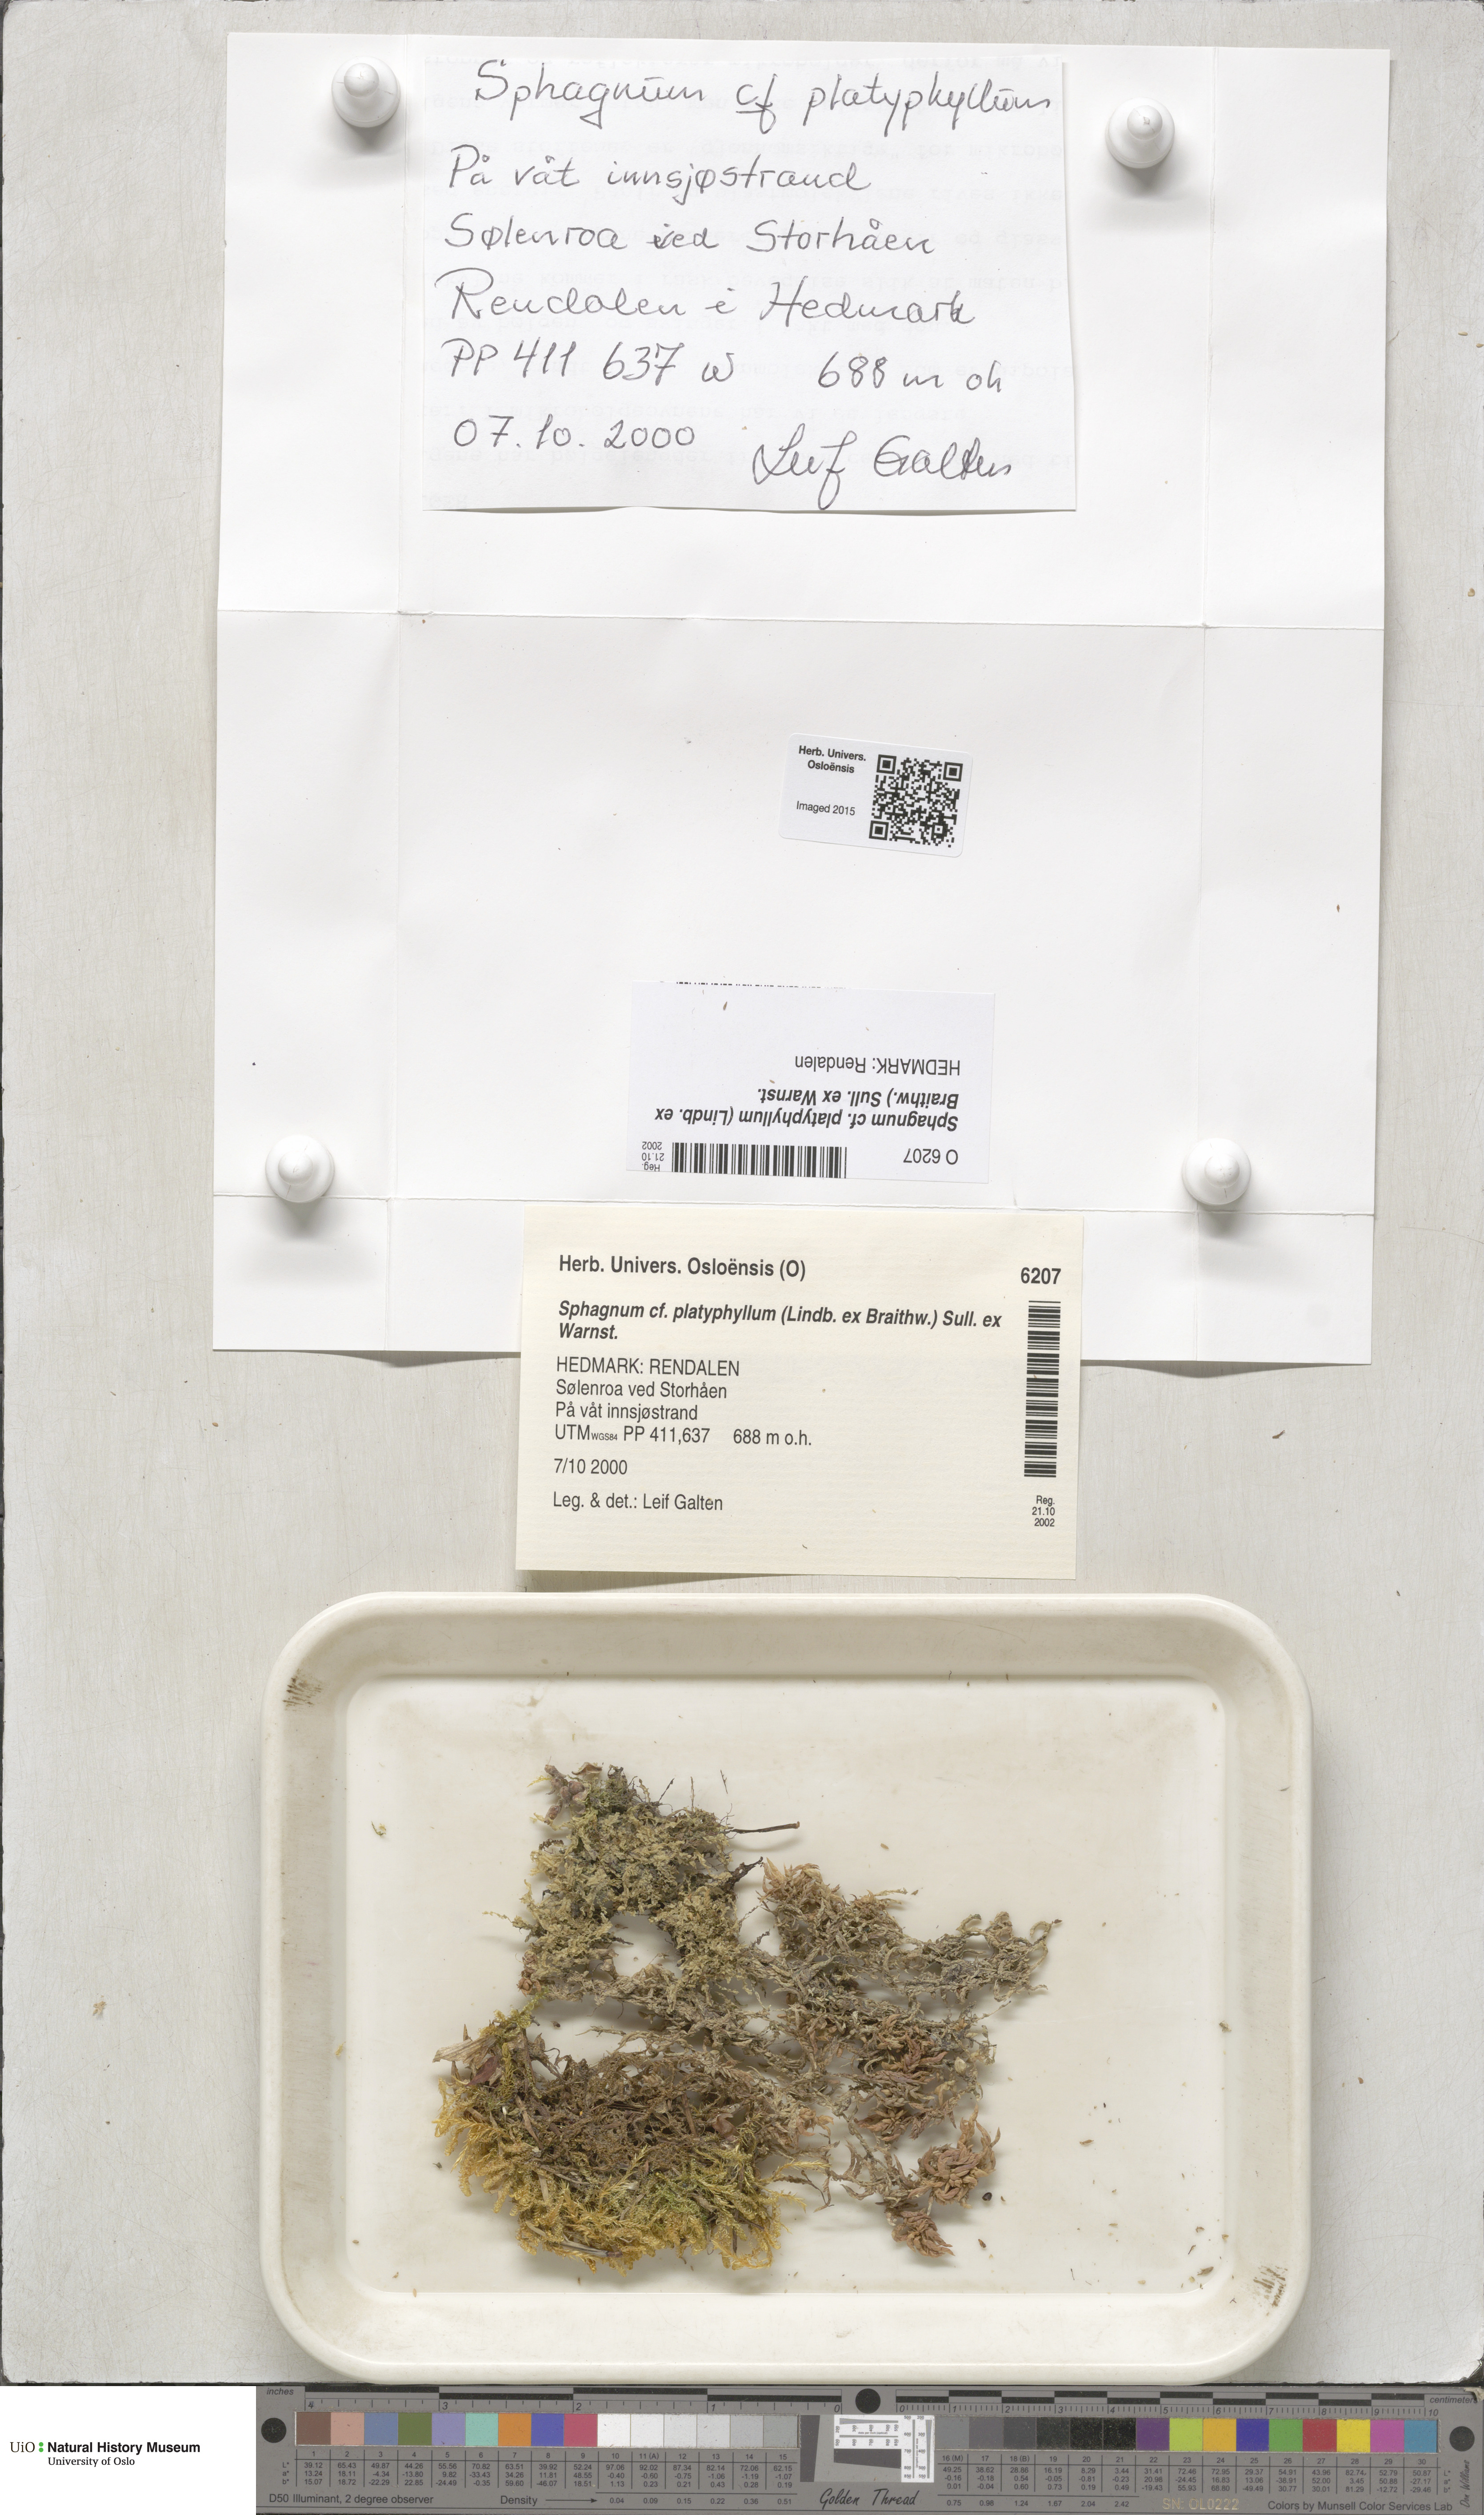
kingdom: Plantae
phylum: Bryophyta
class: Sphagnopsida
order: Sphagnales
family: Sphagnaceae
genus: Sphagnum
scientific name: Sphagnum platyphyllum
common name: Flat-leaved peat moss
